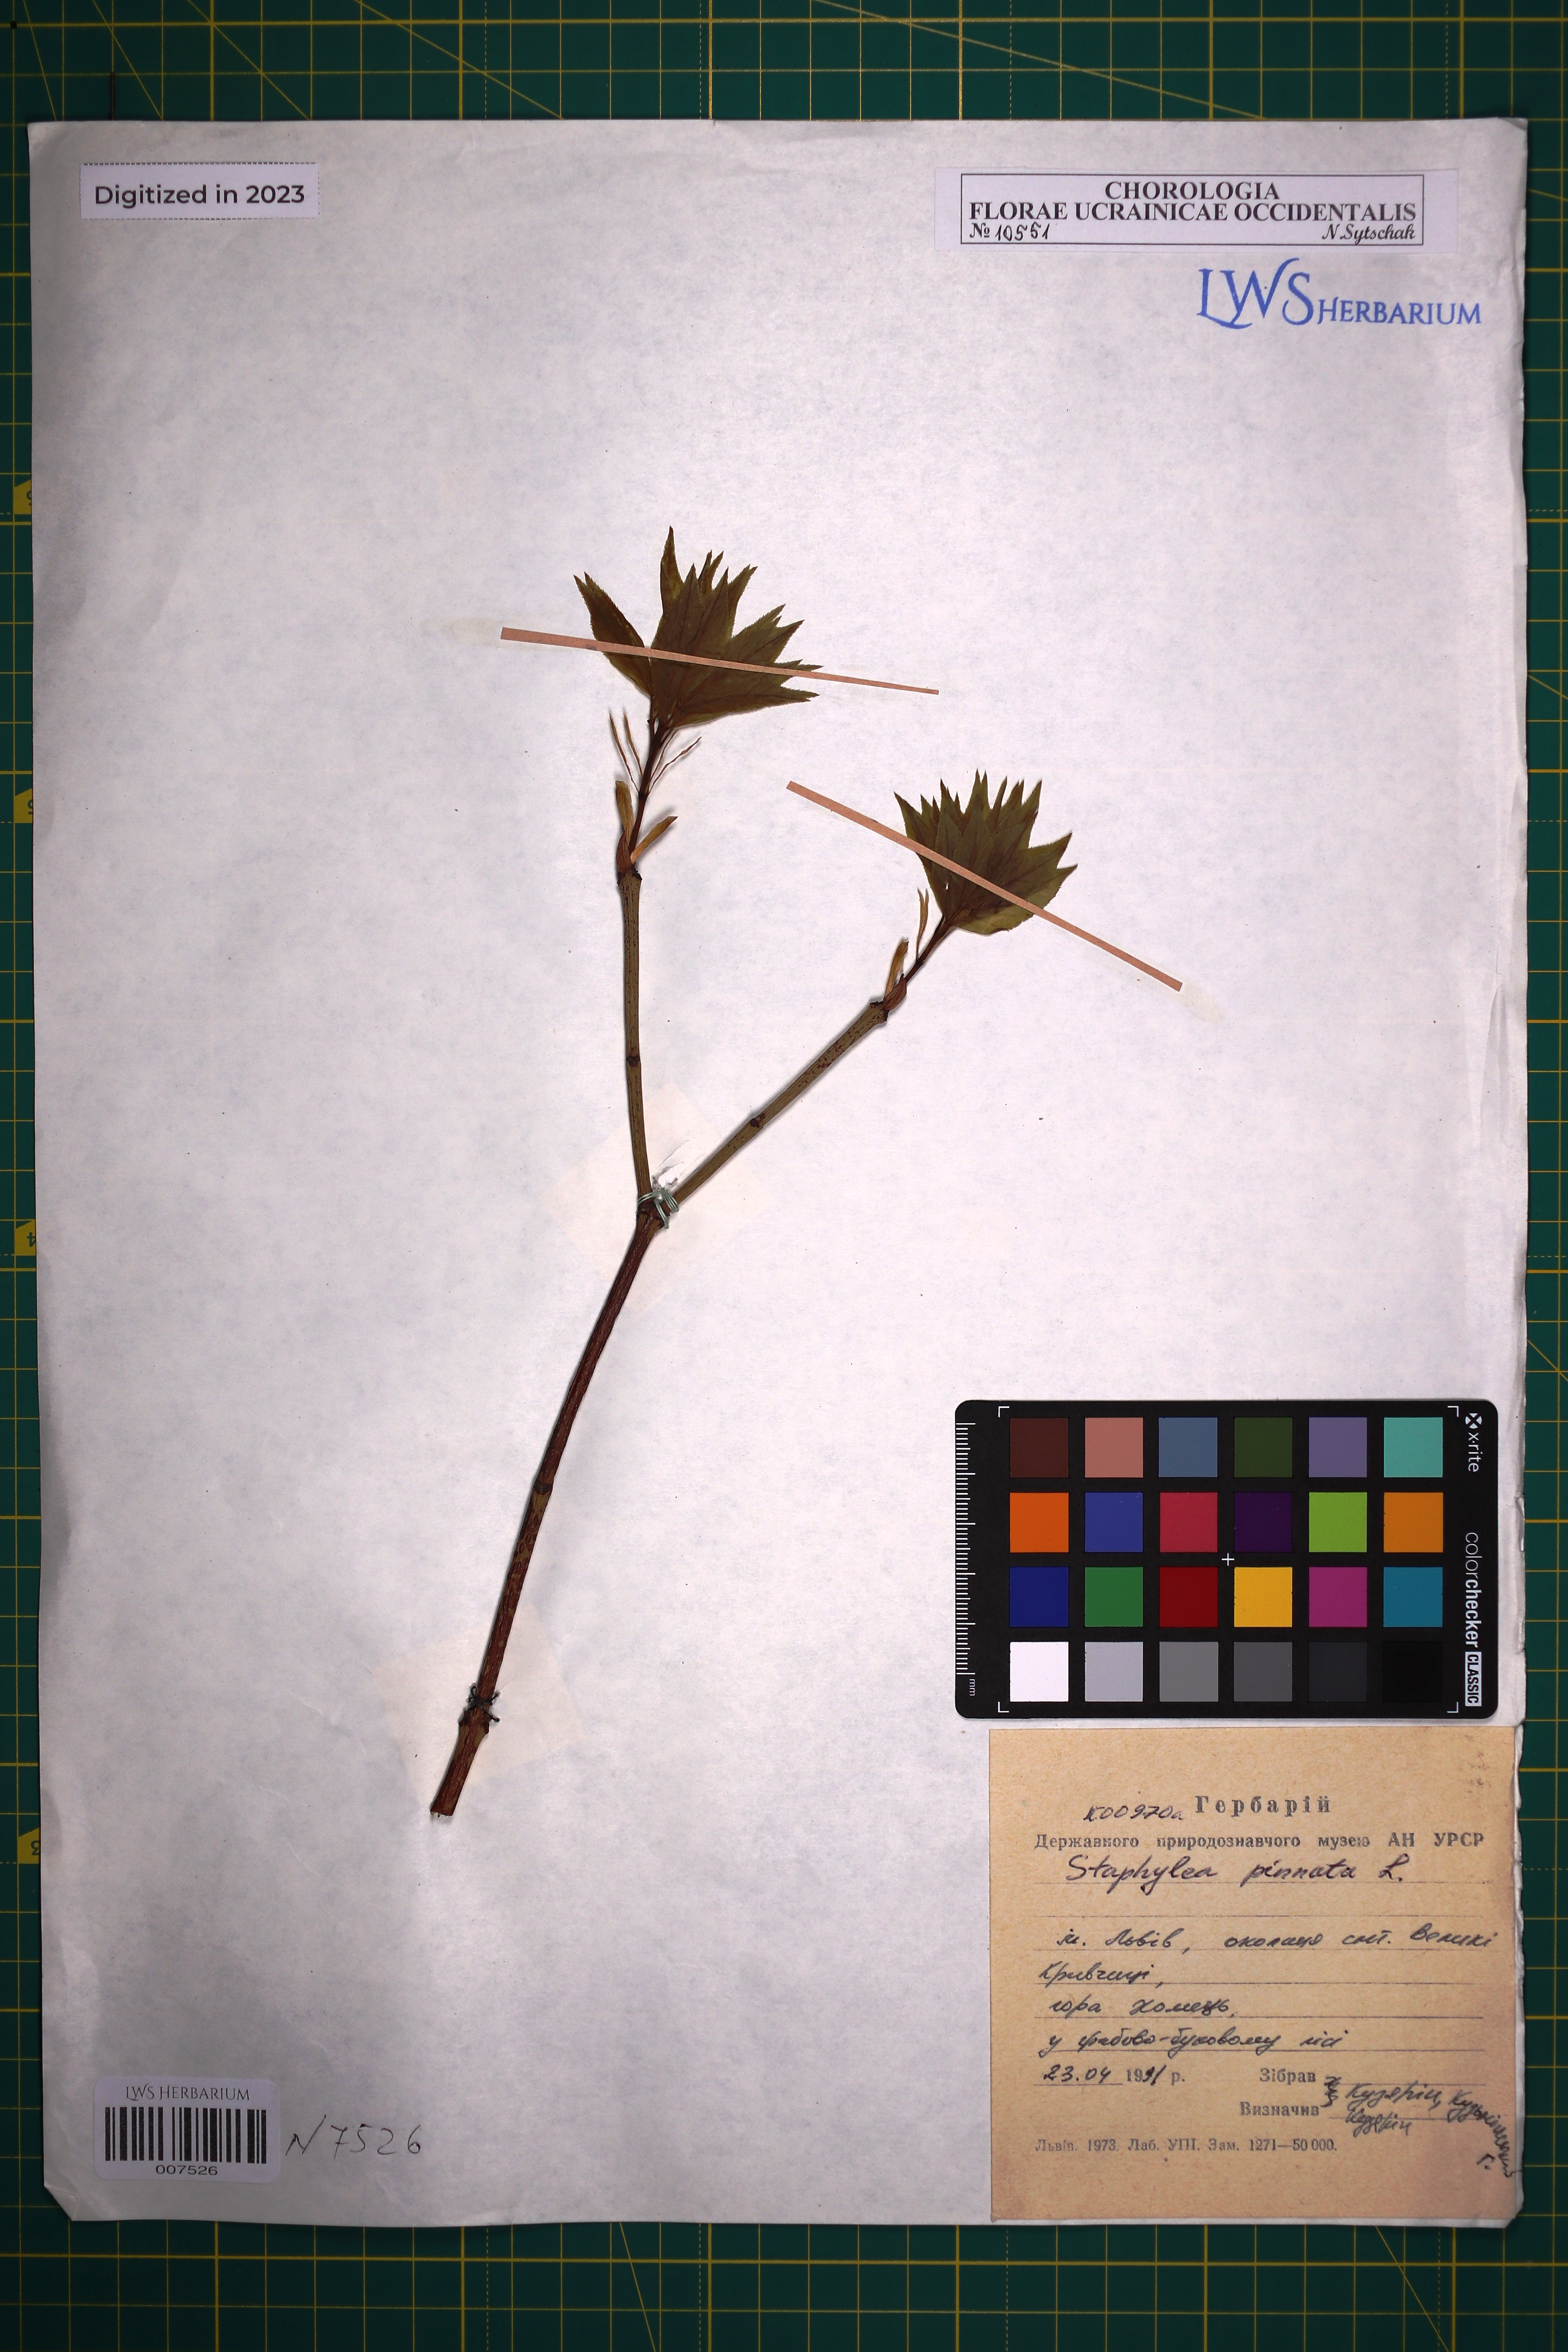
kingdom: Plantae
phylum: Tracheophyta
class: Magnoliopsida
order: Crossosomatales
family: Staphyleaceae
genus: Staphylea
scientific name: Staphylea pinnata
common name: Bladdernut
